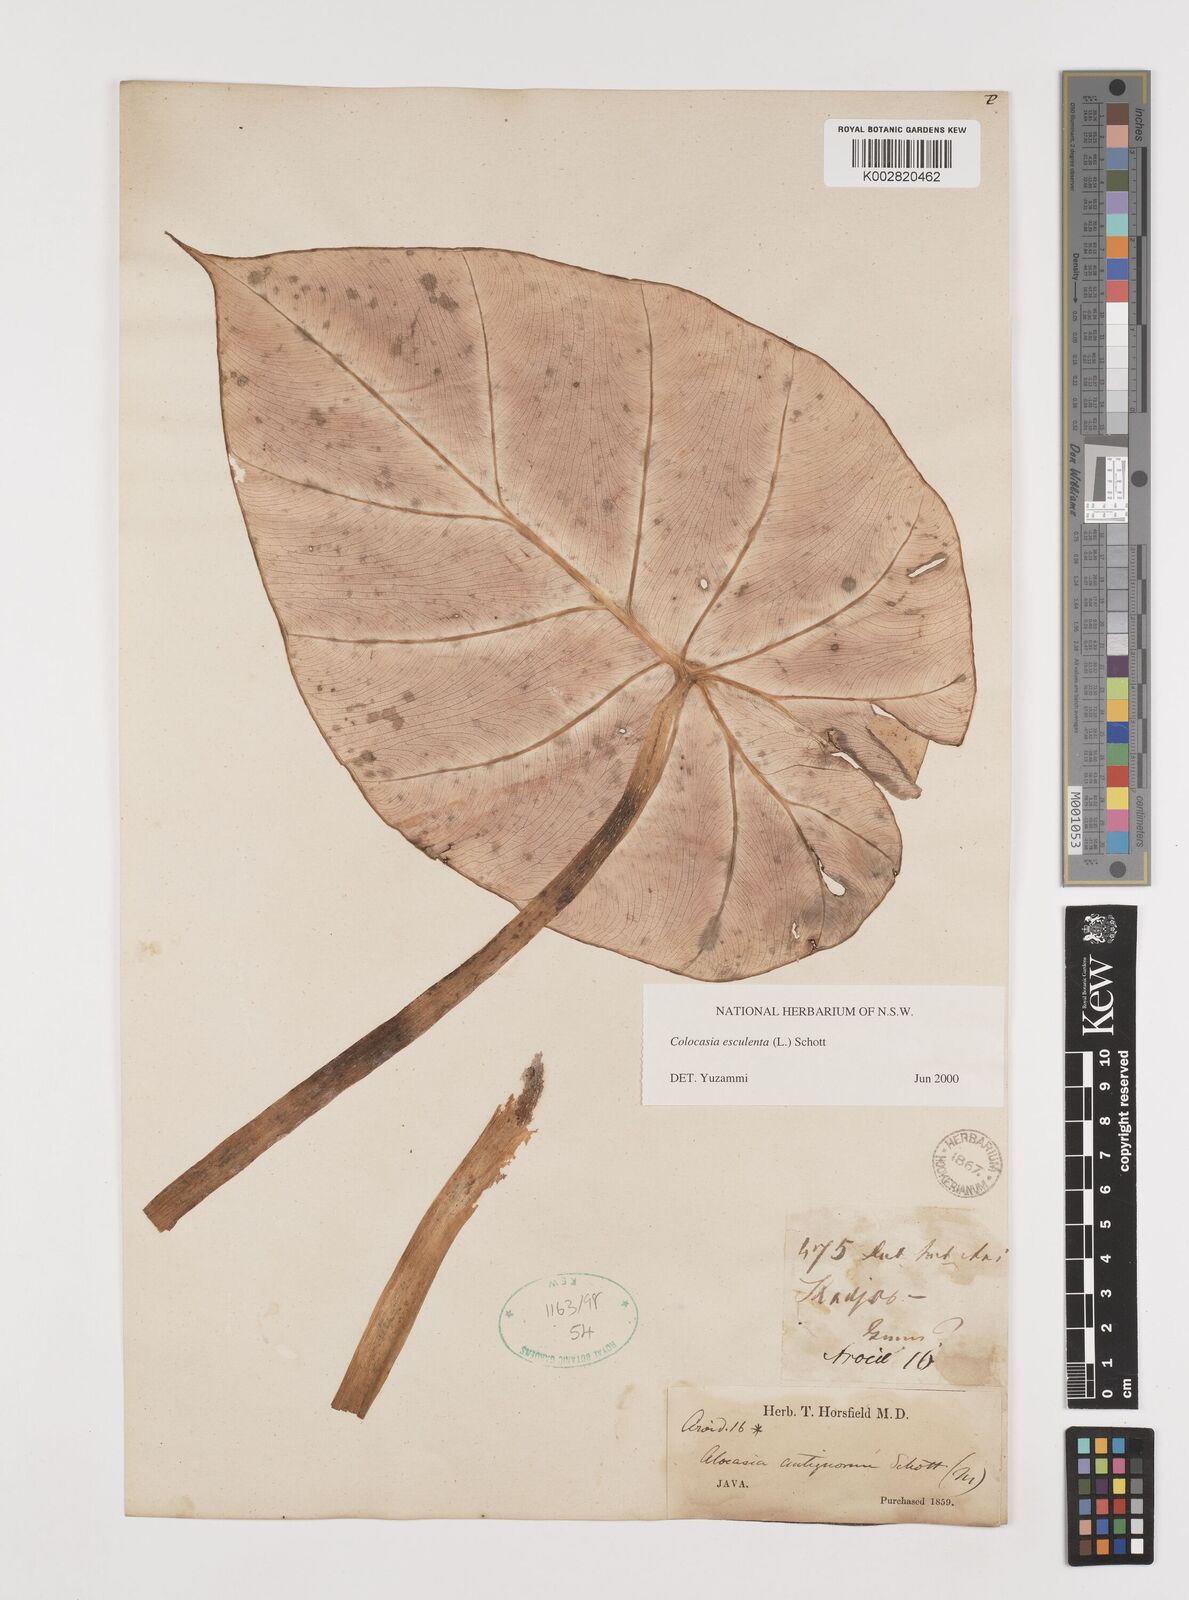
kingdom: Plantae
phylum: Tracheophyta
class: Liliopsida
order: Alismatales
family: Araceae
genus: Colocasia
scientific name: Colocasia esculenta
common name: Taro
